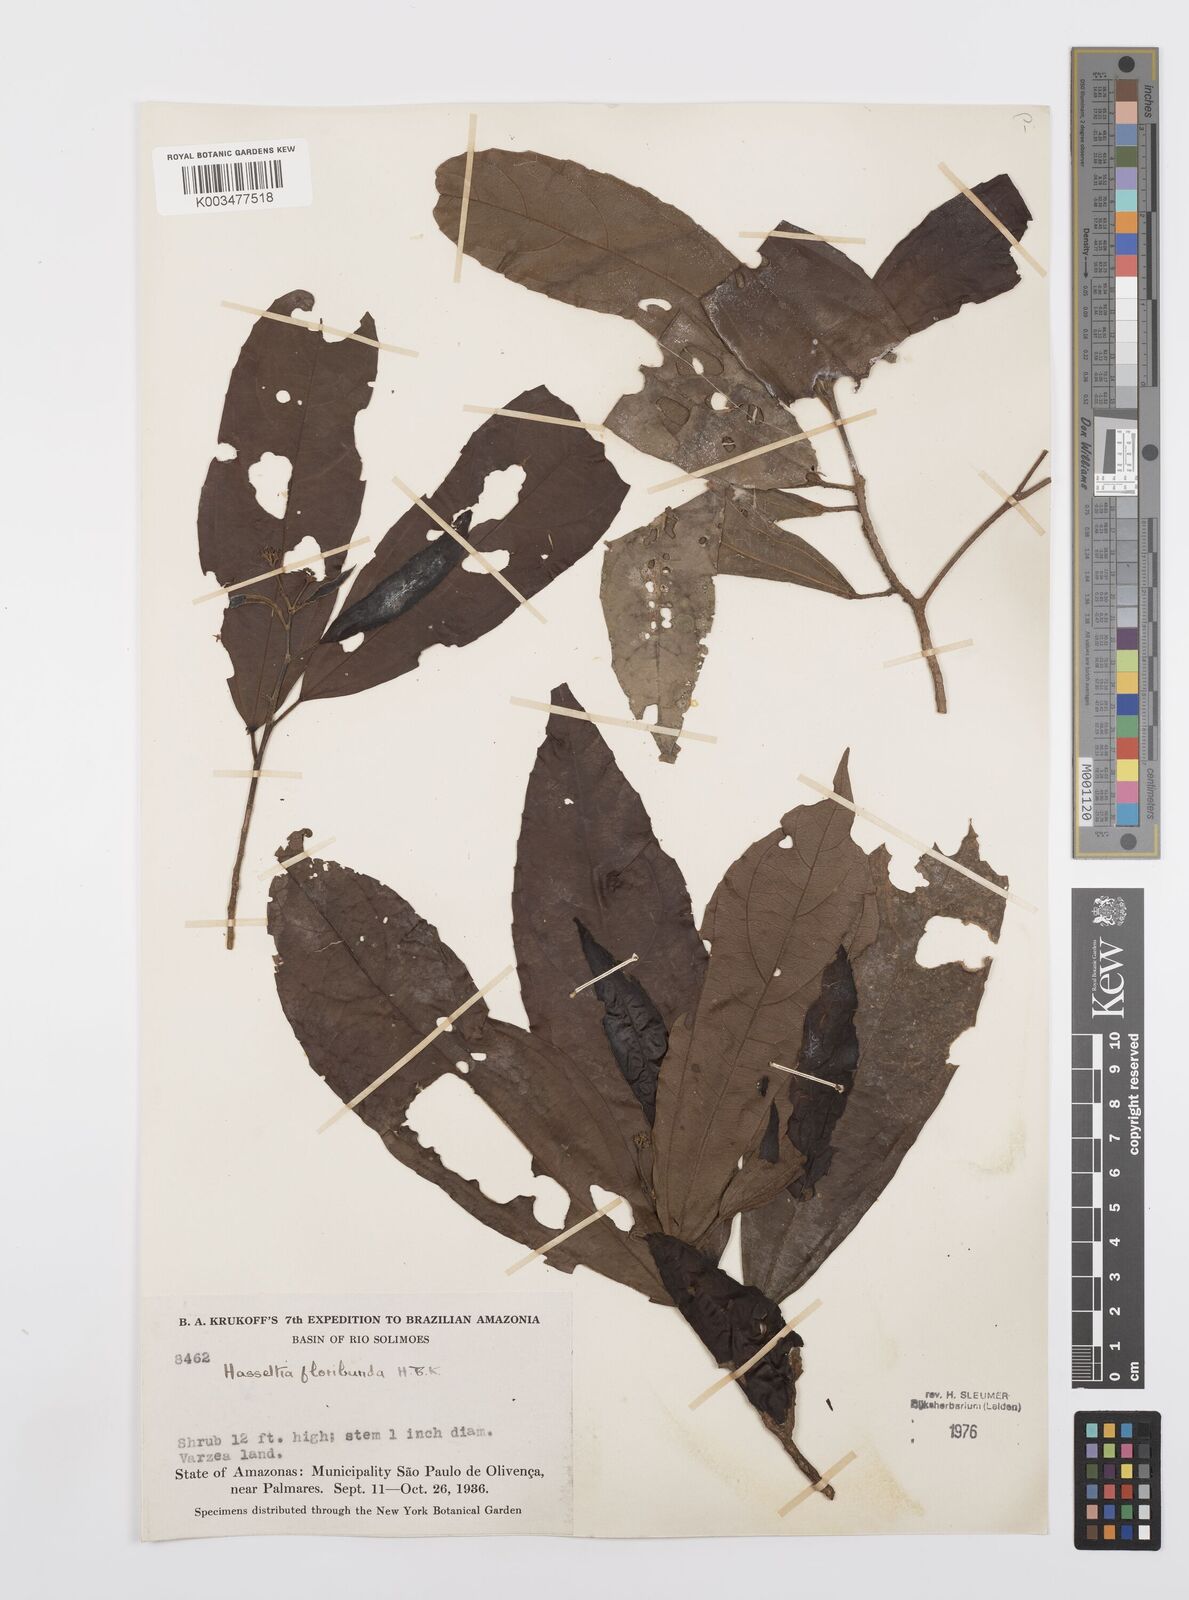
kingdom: Plantae
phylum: Tracheophyta
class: Magnoliopsida
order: Malpighiales
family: Salicaceae
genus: Hasseltia
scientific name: Hasseltia floribunda
